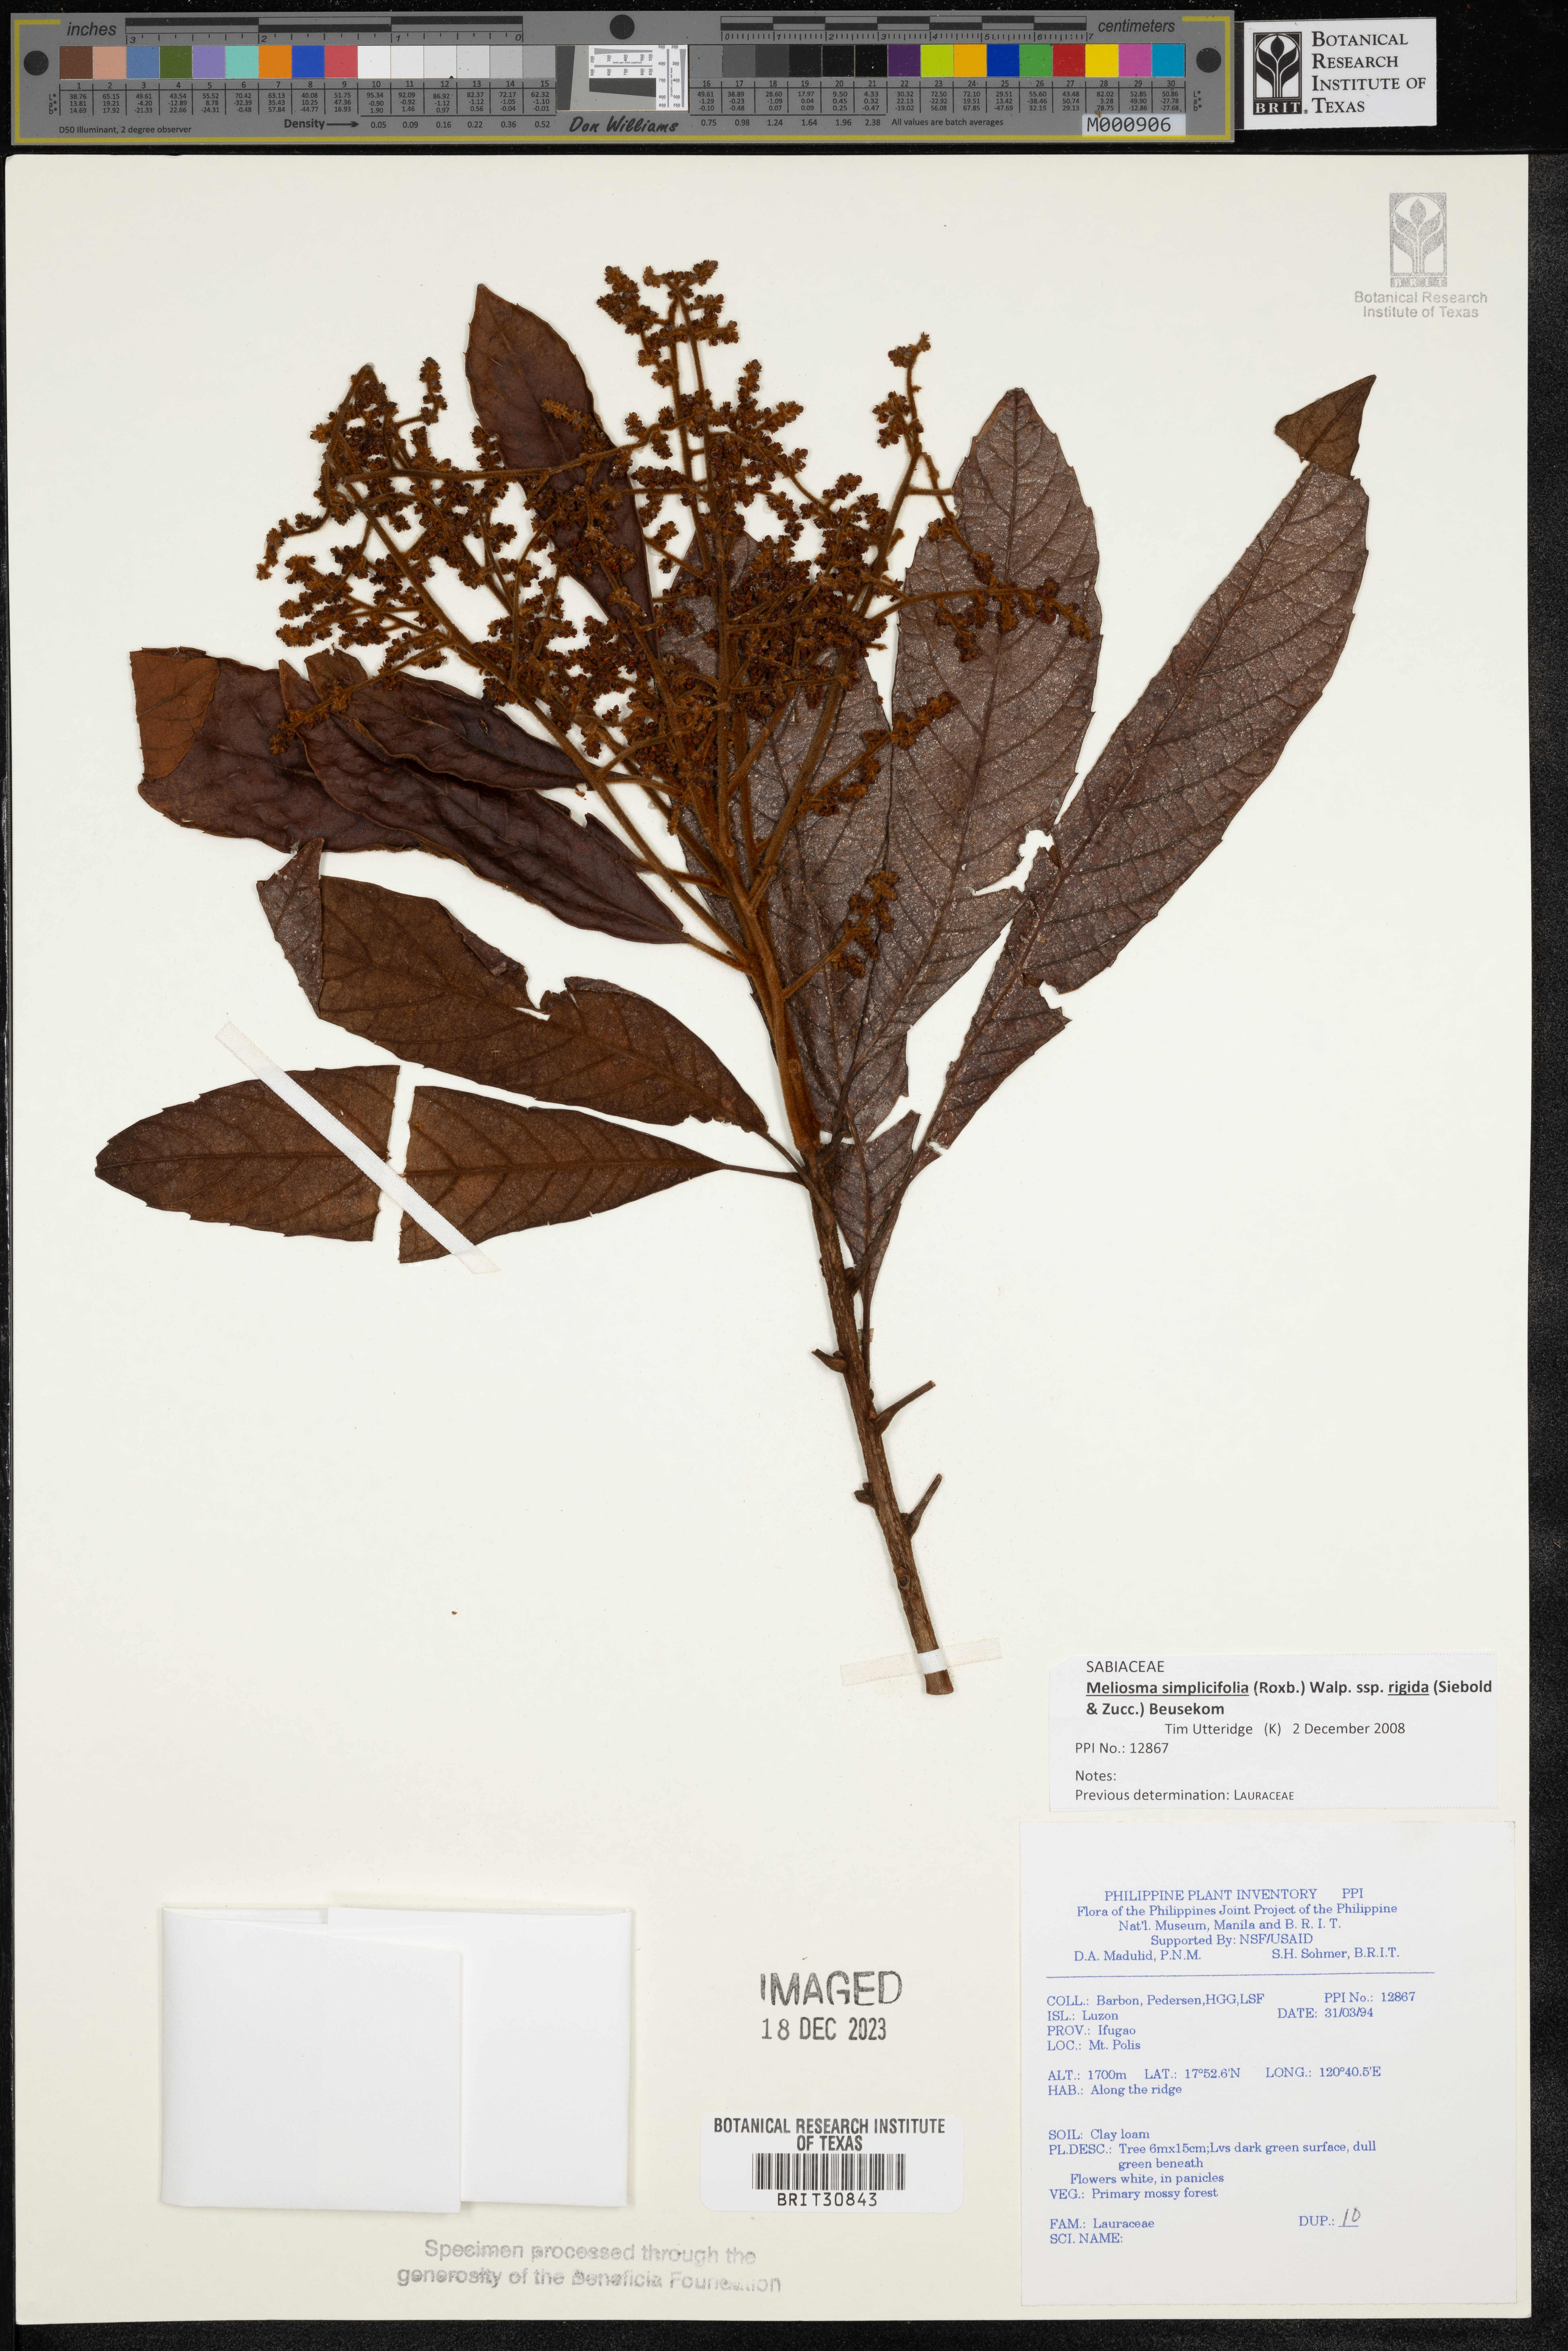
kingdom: Plantae
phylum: Tracheophyta
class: Magnoliopsida
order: Laurales
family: Lauraceae
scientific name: Lauraceae
